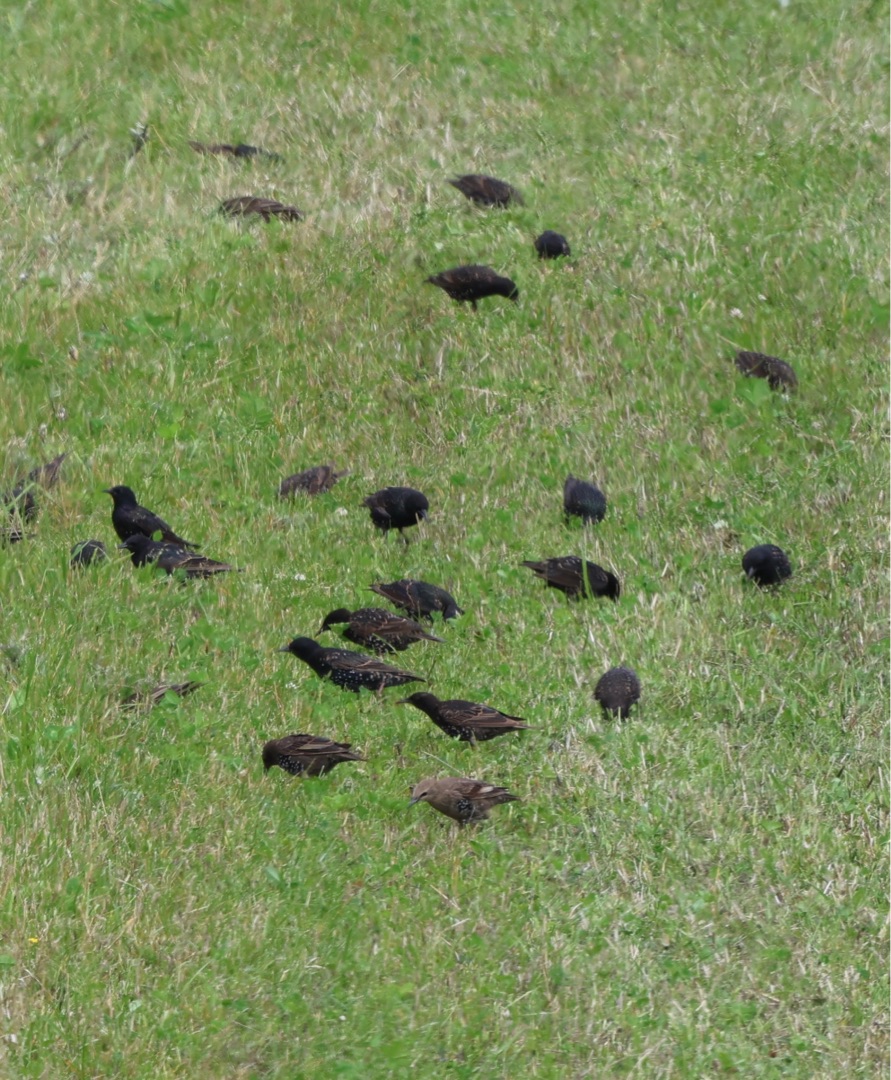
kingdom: Animalia
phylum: Chordata
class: Aves
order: Passeriformes
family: Sturnidae
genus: Sturnus
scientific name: Sturnus vulgaris
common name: Stær
